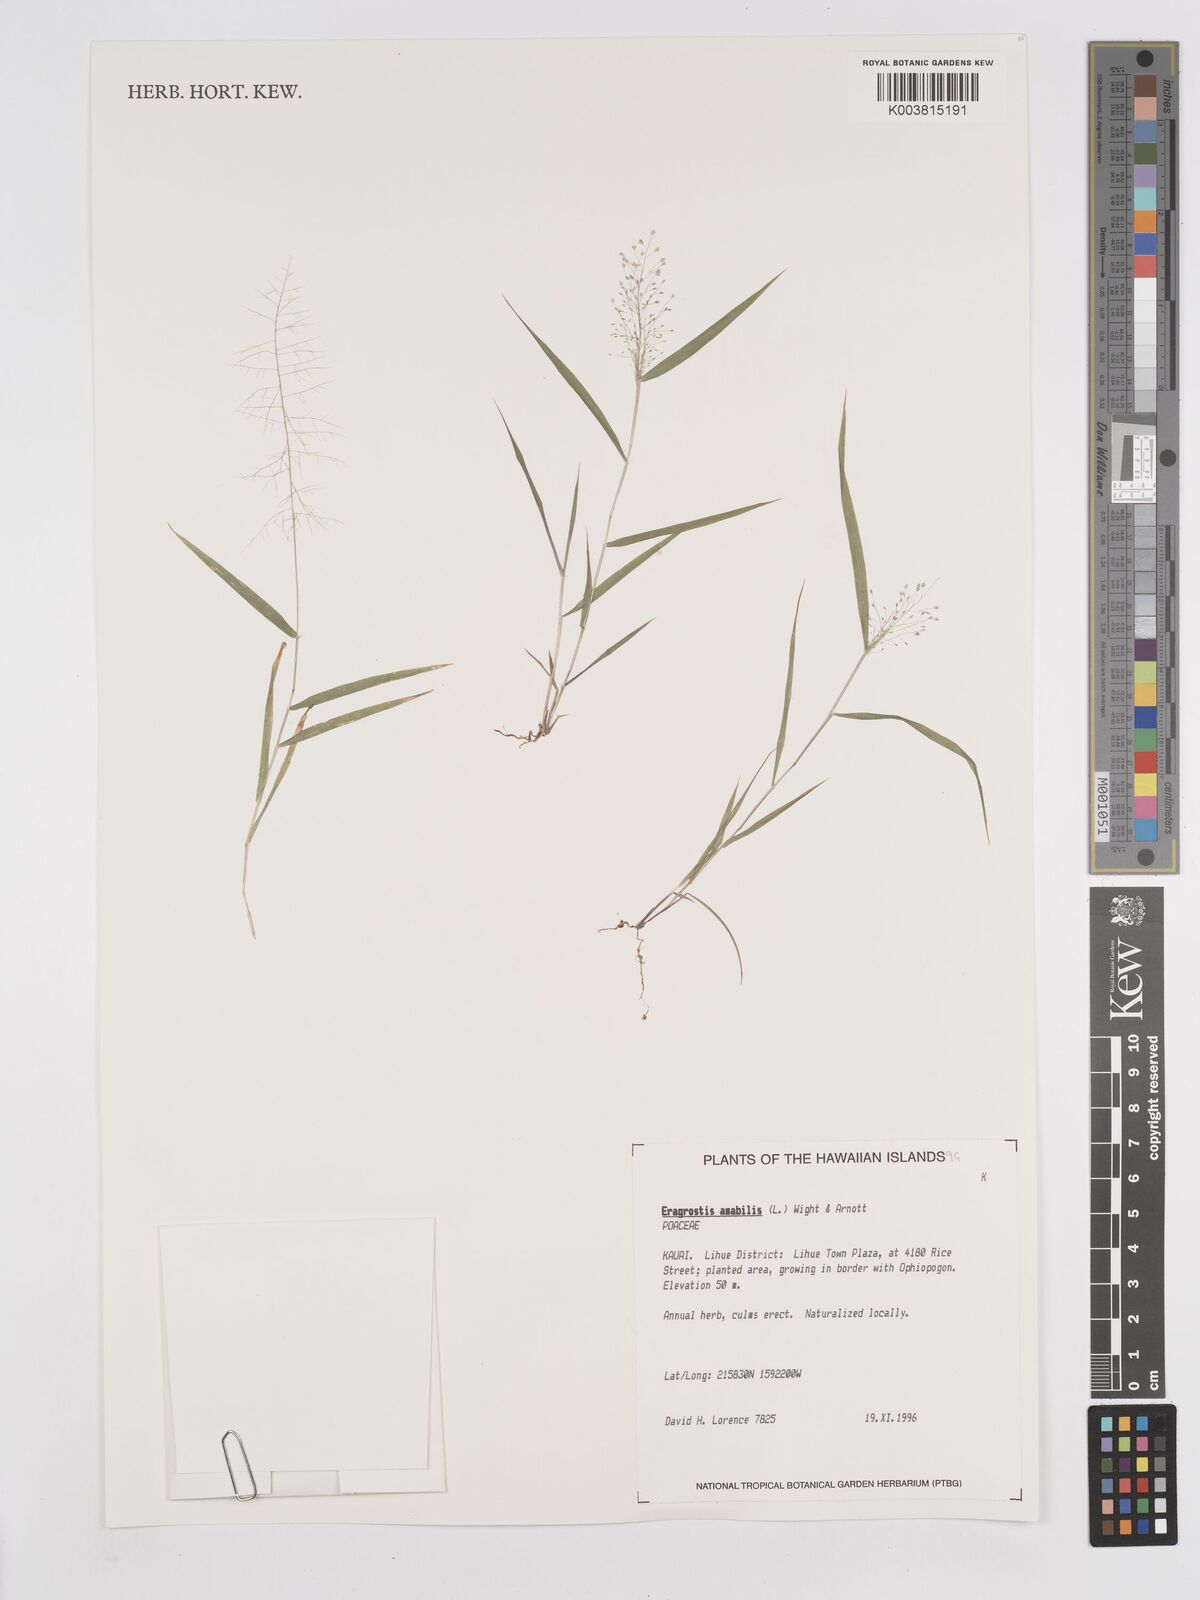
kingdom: Plantae
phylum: Tracheophyta
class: Liliopsida
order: Poales
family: Poaceae
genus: Eragrostis
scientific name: Eragrostis tenella
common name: Japanese lovegrass
